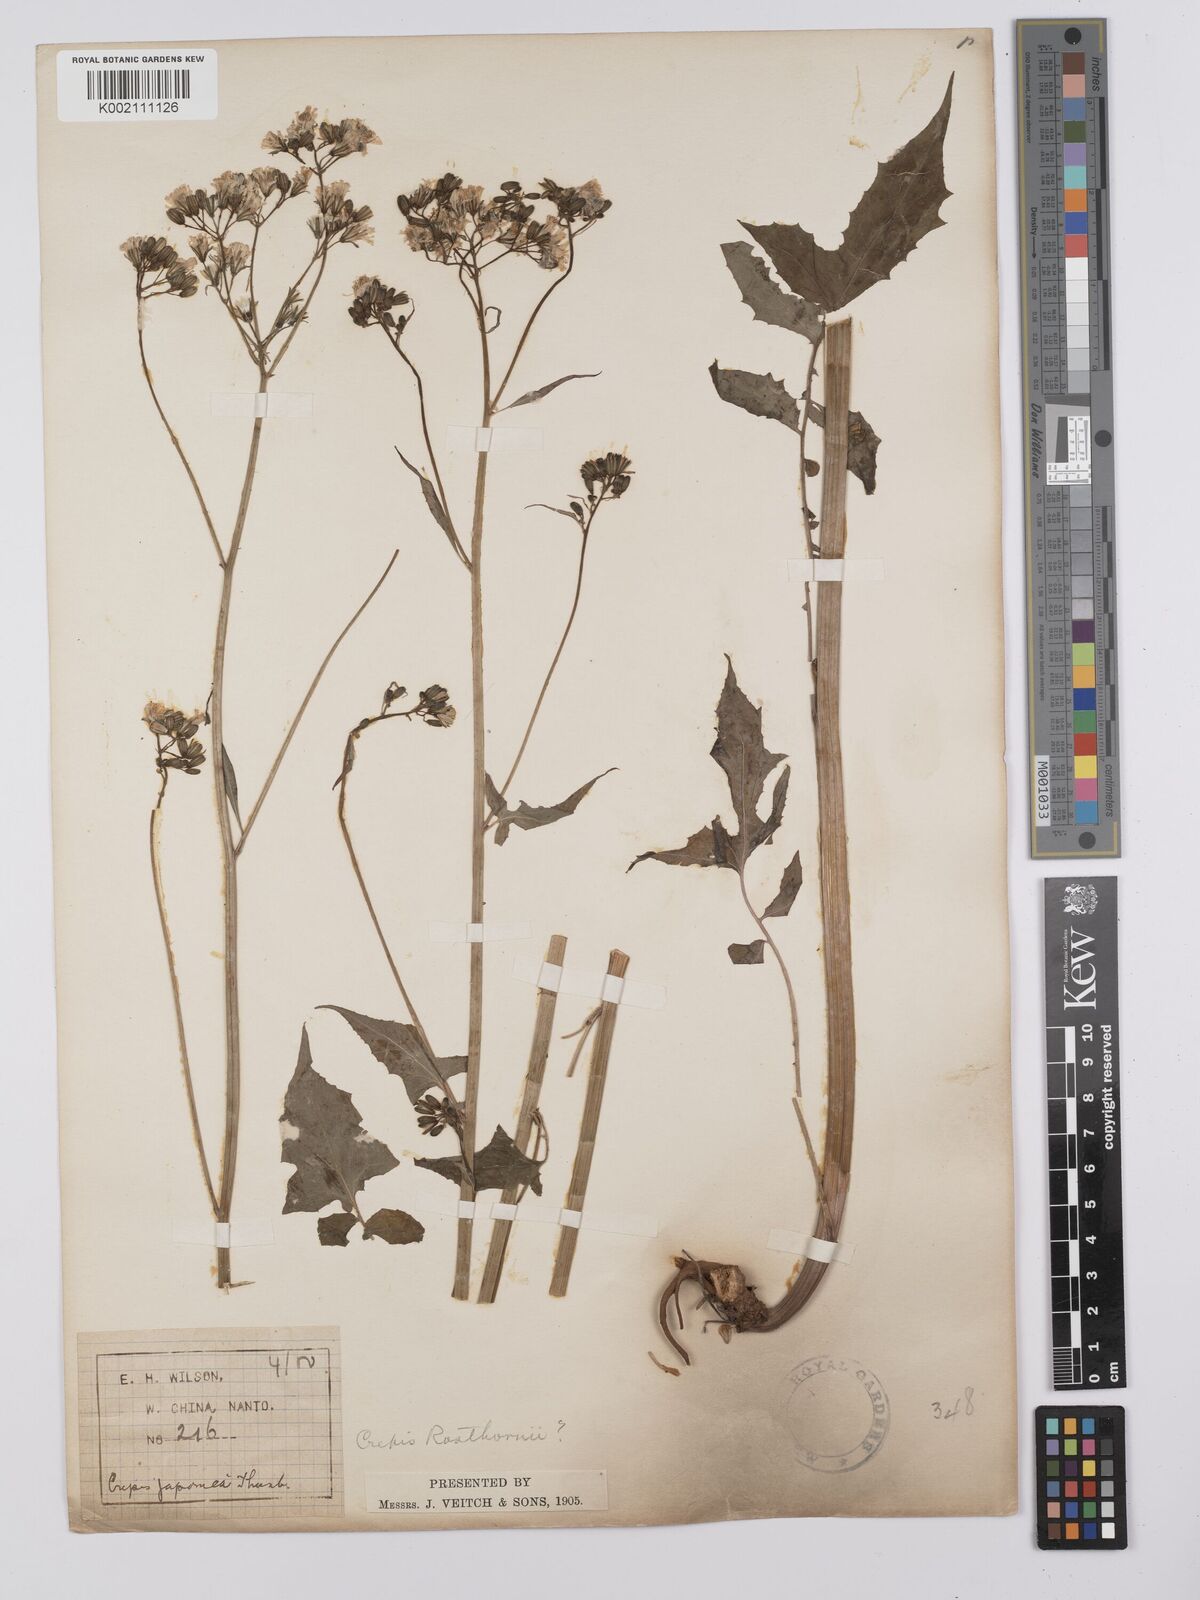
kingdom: Plantae
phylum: Tracheophyta
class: Magnoliopsida
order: Asterales
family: Asteraceae
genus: Youngia
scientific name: Youngia
